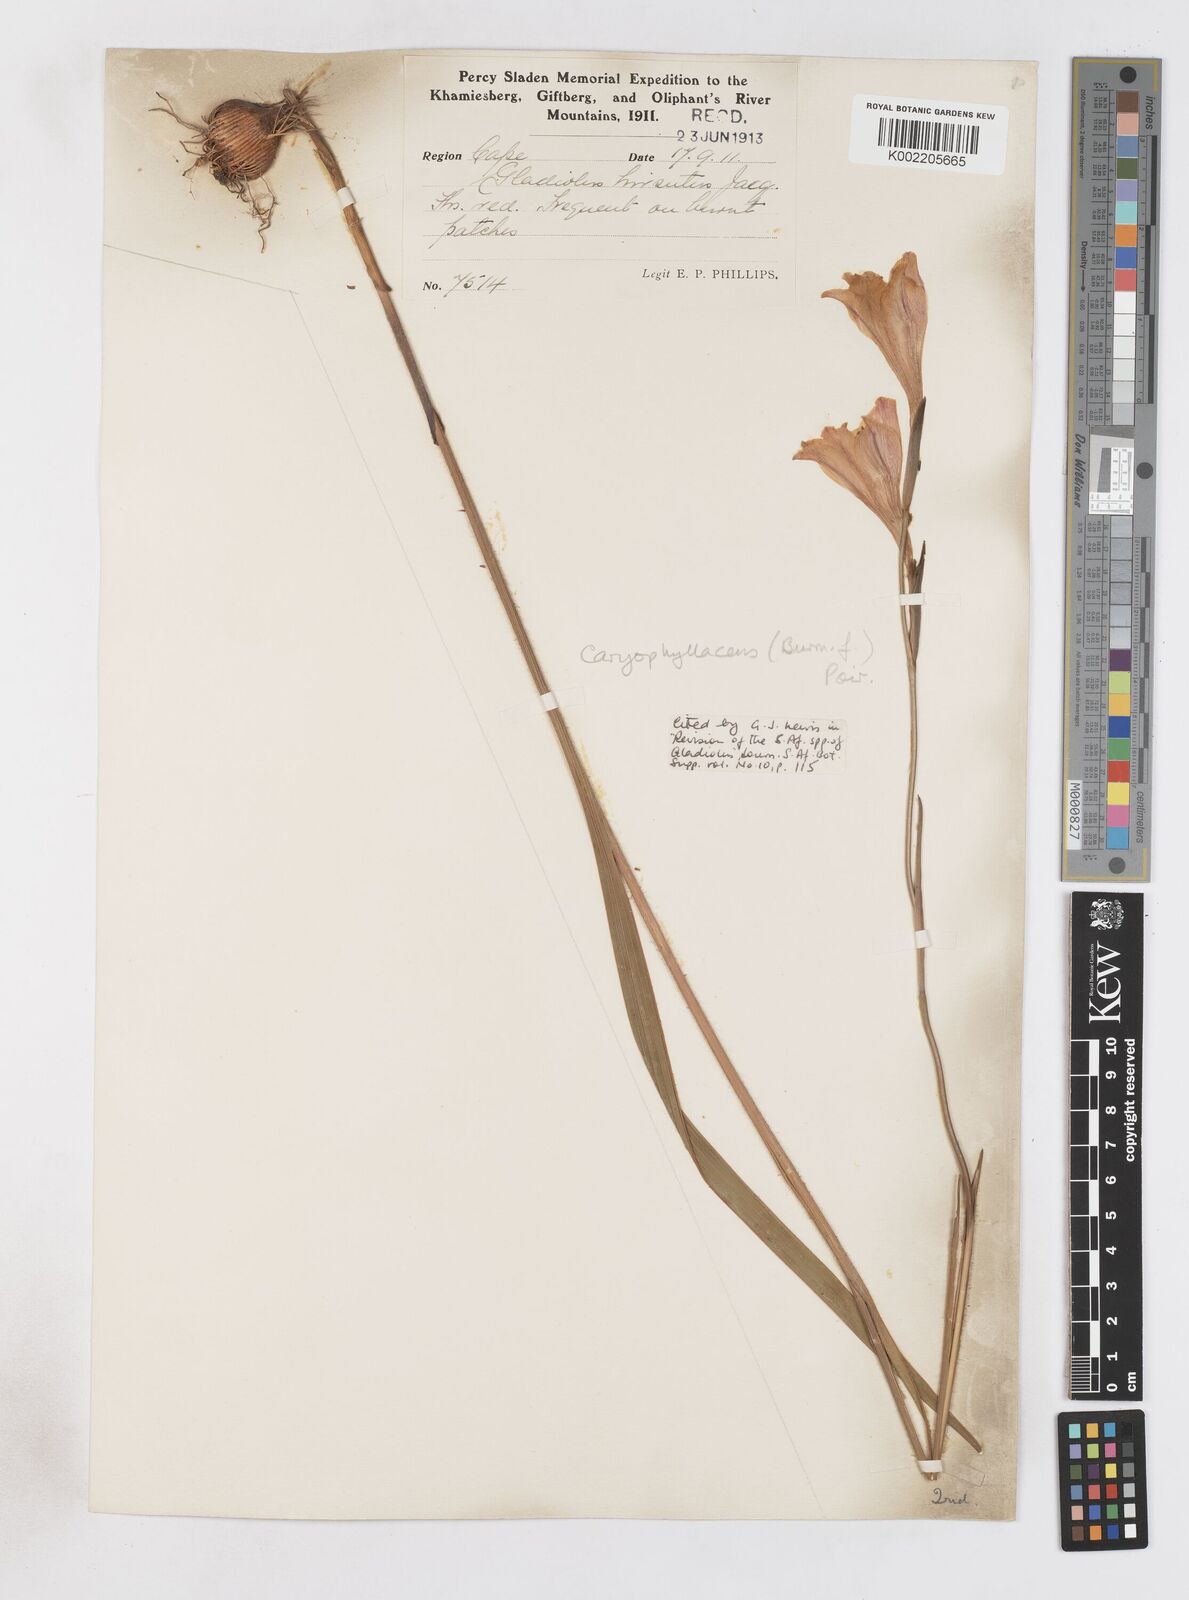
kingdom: Plantae
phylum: Tracheophyta
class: Liliopsida
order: Asparagales
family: Iridaceae
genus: Gladiolus
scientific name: Gladiolus caryophyllaceus
